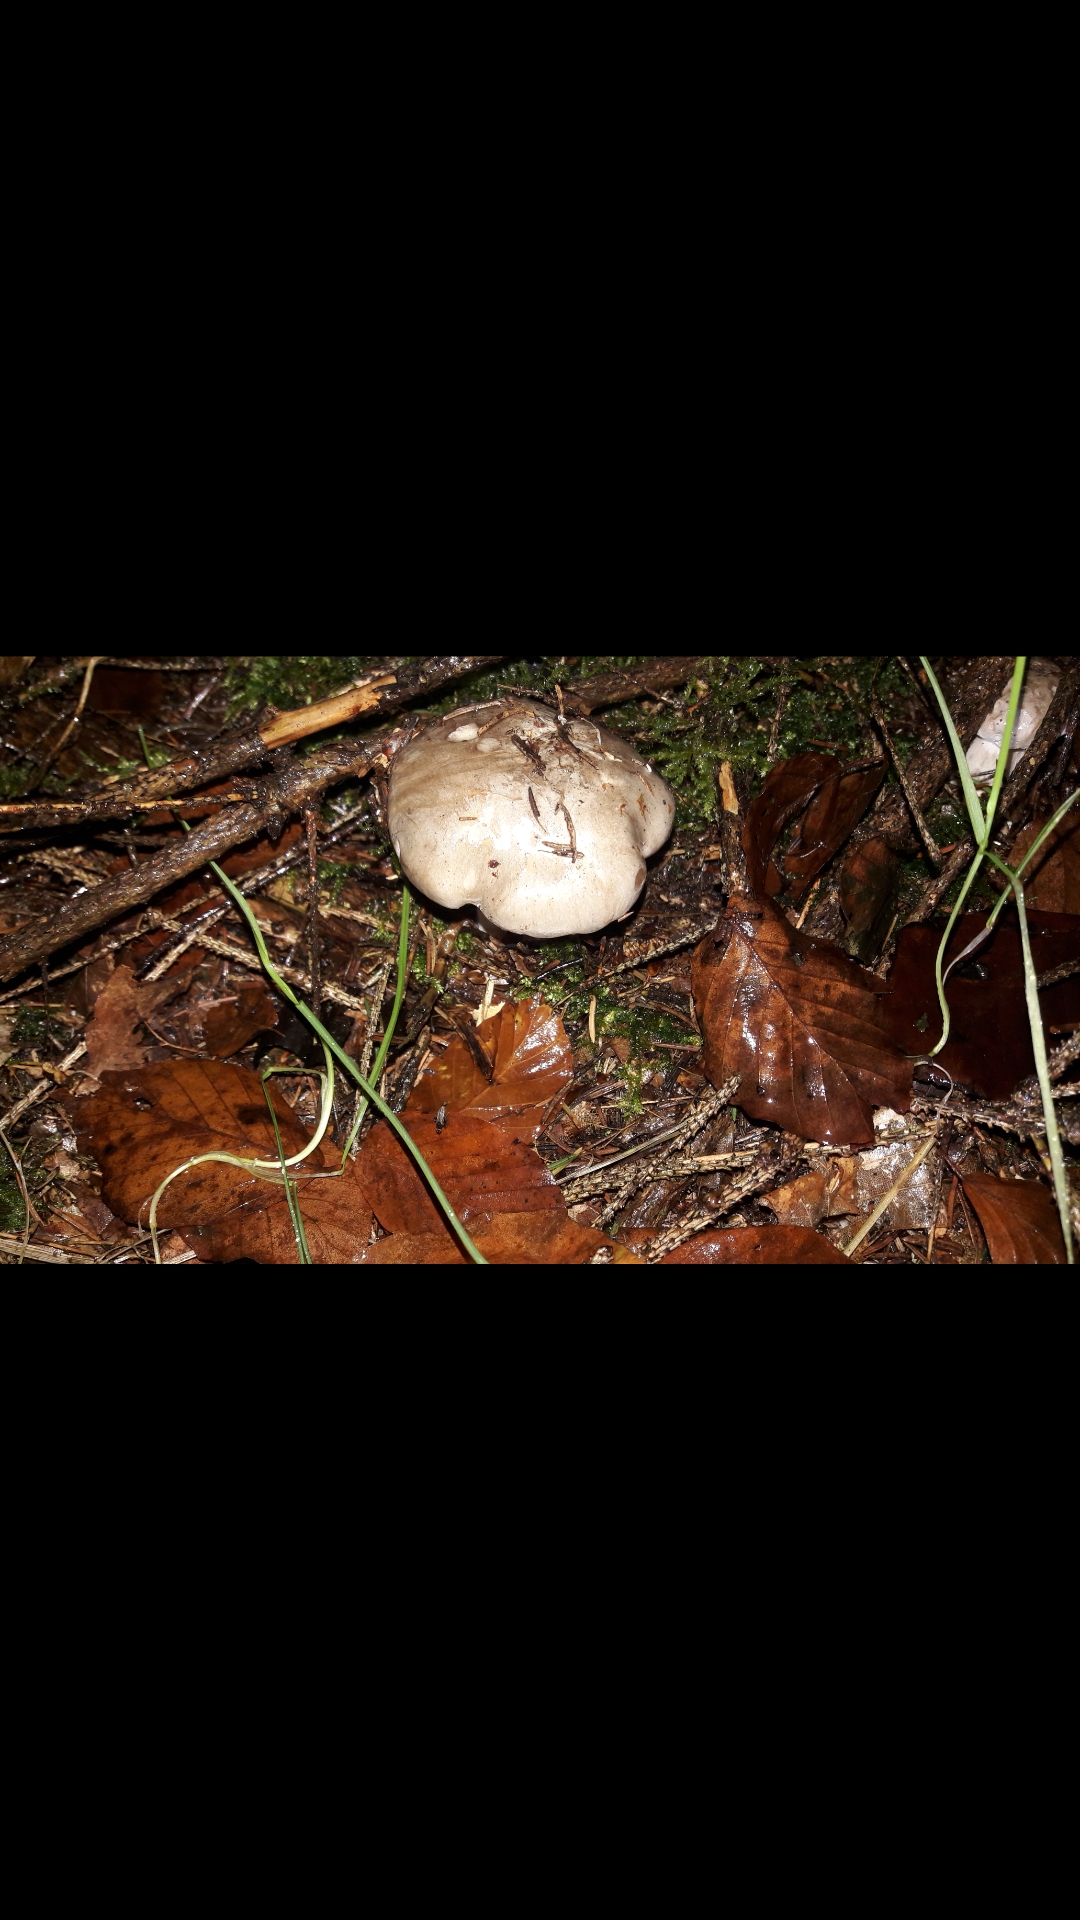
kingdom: Fungi
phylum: Basidiomycota
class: Agaricomycetes
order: Agaricales
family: Tricholomataceae
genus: Clitocybe
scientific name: Clitocybe nebularis
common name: tåge-tragthat
